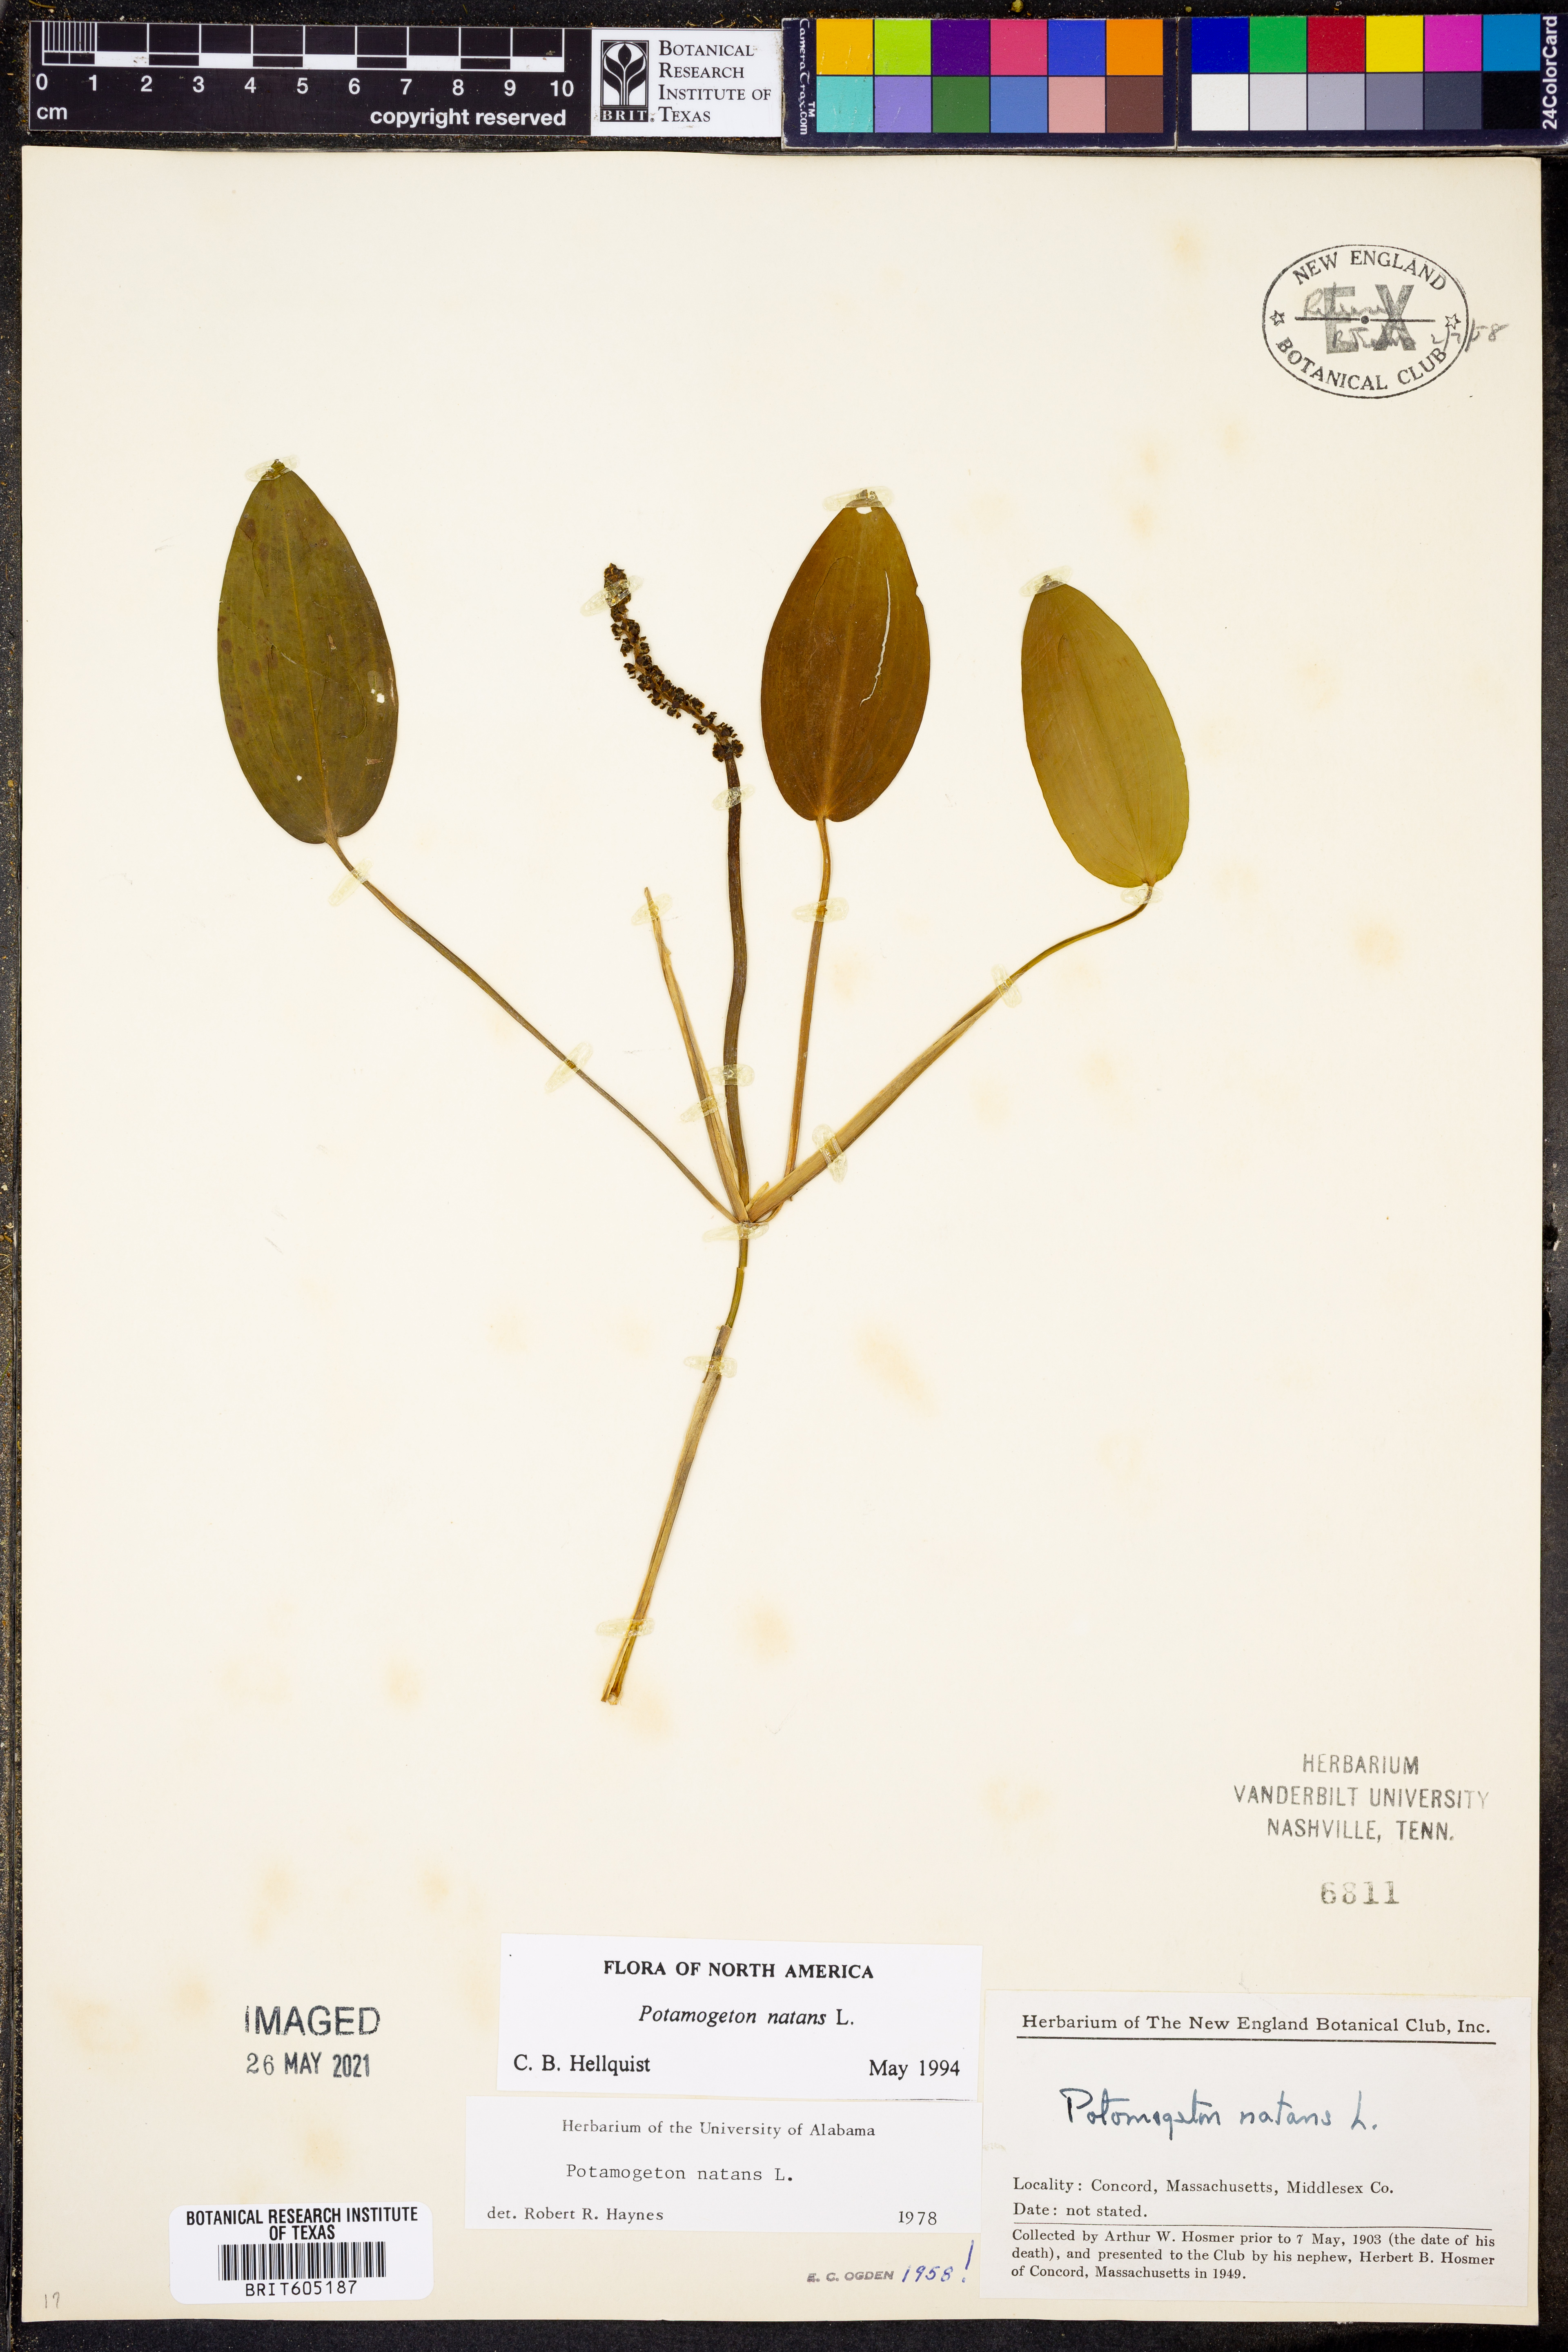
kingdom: Plantae
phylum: Tracheophyta
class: Liliopsida
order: Alismatales
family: Potamogetonaceae
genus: Potamogeton
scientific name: Potamogeton natans
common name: Broad-leaved pondweed
